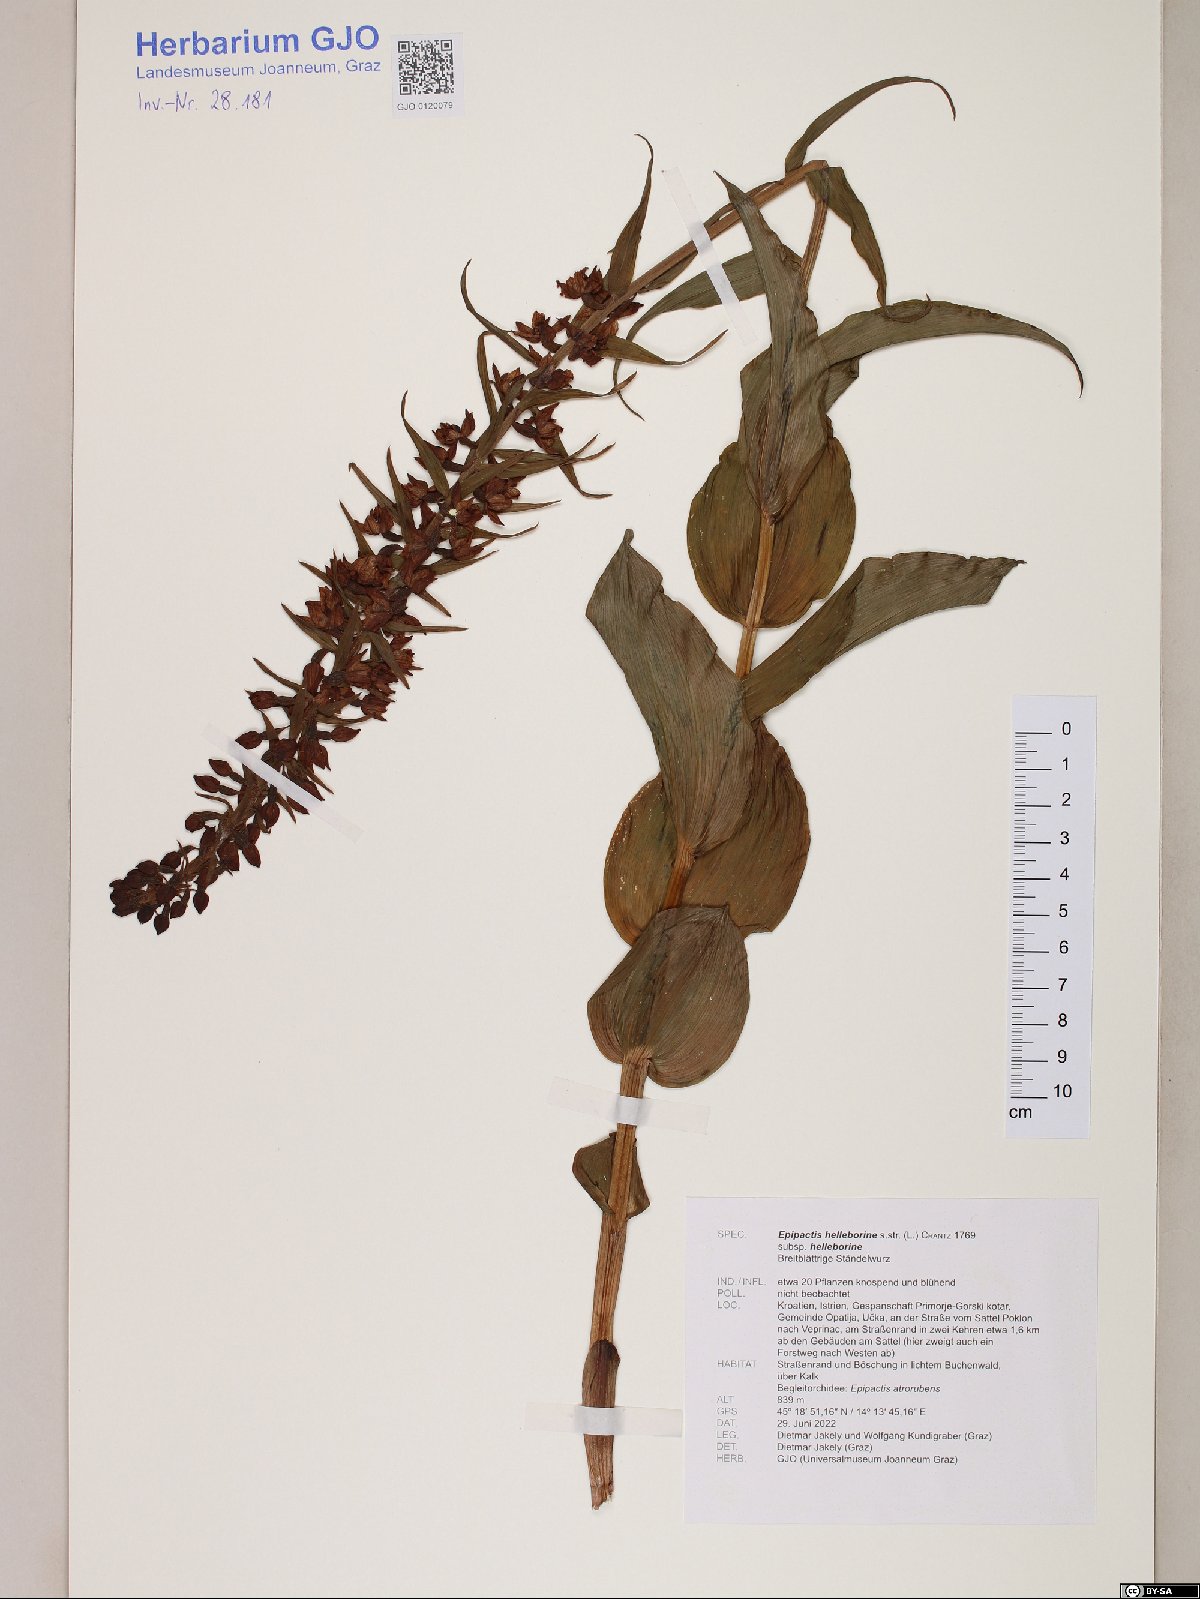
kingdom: Plantae
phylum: Tracheophyta
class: Liliopsida
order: Asparagales
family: Orchidaceae
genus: Epipactis
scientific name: Epipactis helleborine
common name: Broad-leaved helleborine
